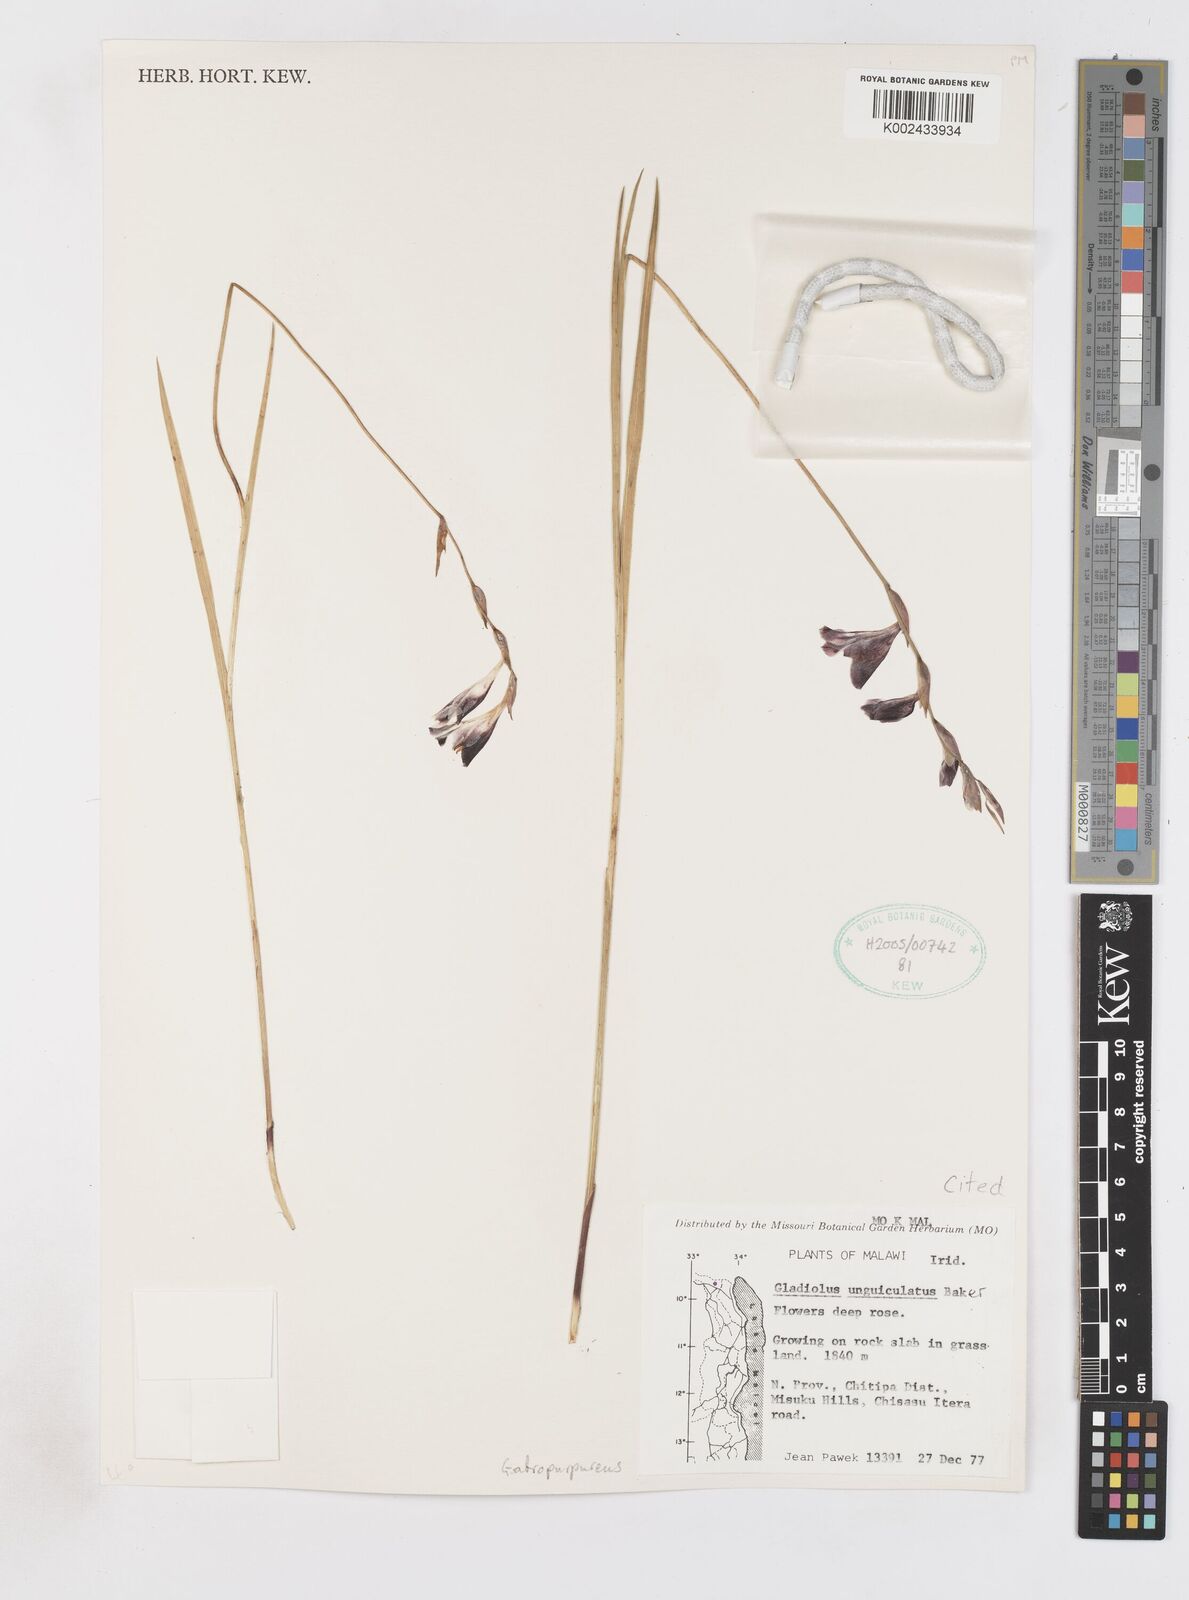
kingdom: Plantae
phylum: Tracheophyta
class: Liliopsida
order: Asparagales
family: Iridaceae
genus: Gladiolus
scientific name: Gladiolus atropurpureus
